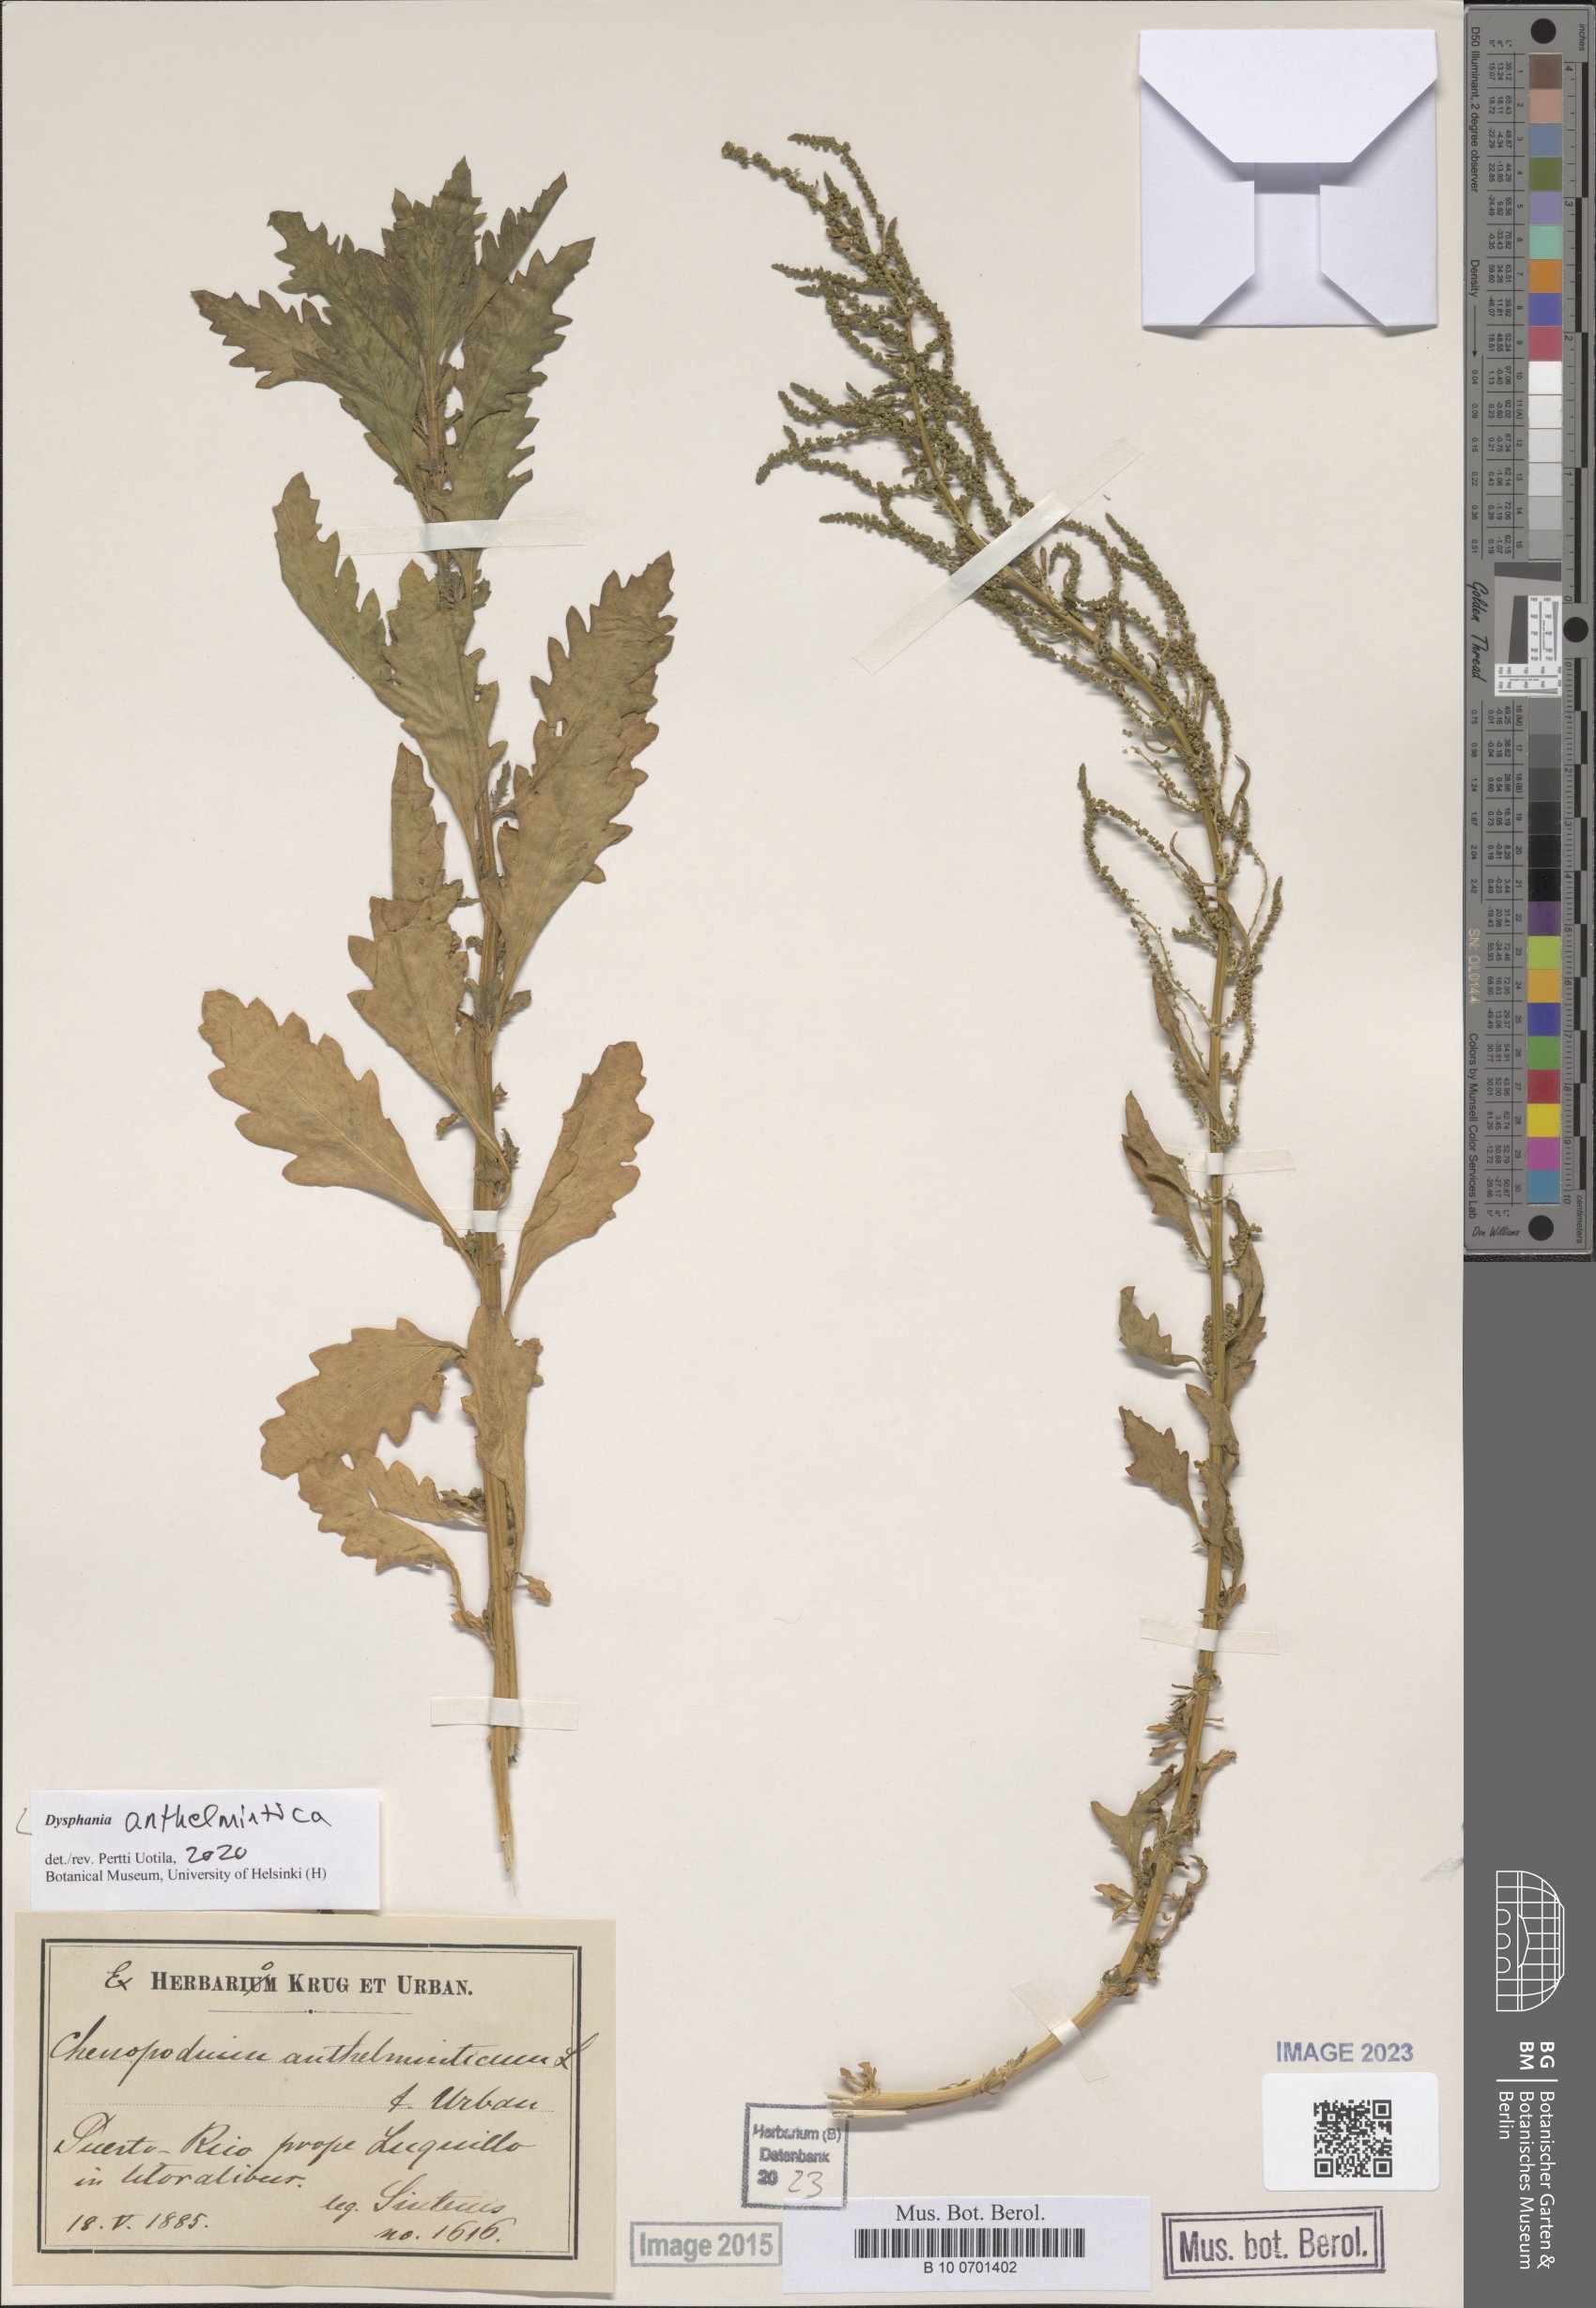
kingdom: Plantae
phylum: Tracheophyta
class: Magnoliopsida
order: Caryophyllales
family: Amaranthaceae
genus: Dysphania
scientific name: Dysphania anthelmintica
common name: Wormseed
